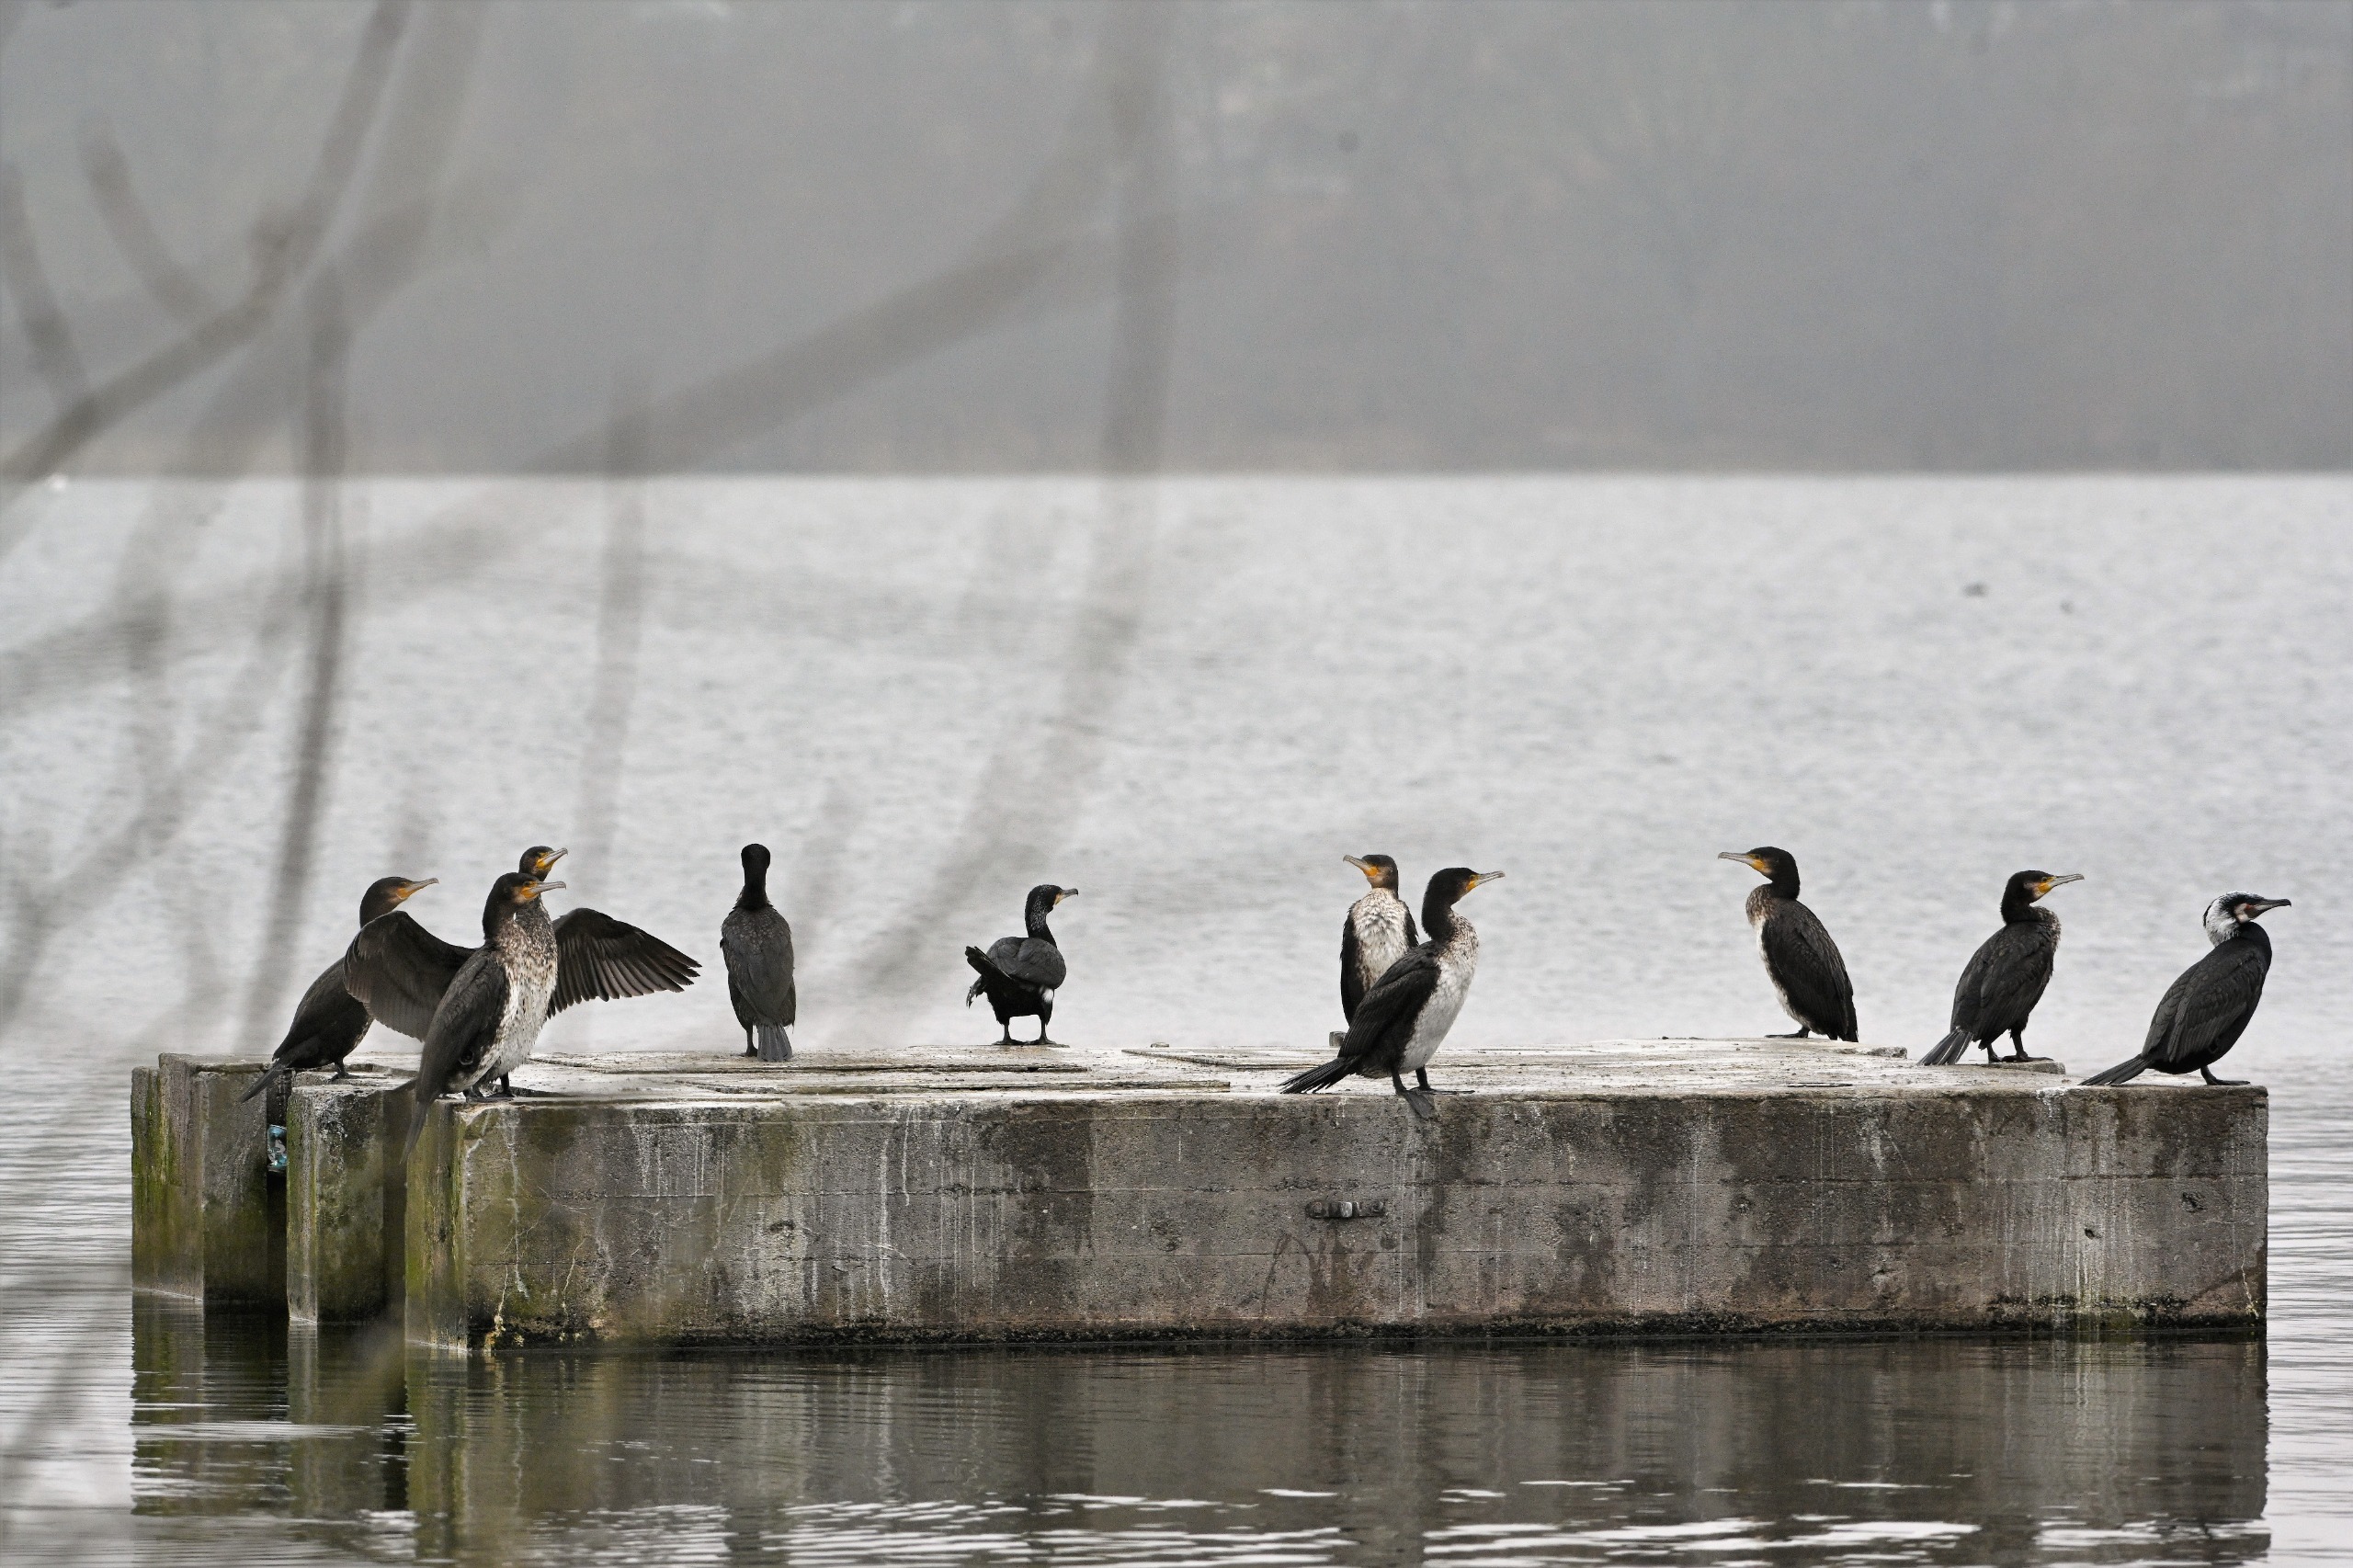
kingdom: Animalia
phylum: Chordata
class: Aves
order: Suliformes
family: Phalacrocoracidae
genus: Phalacrocorax
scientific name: Phalacrocorax carbo
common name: Skarv
